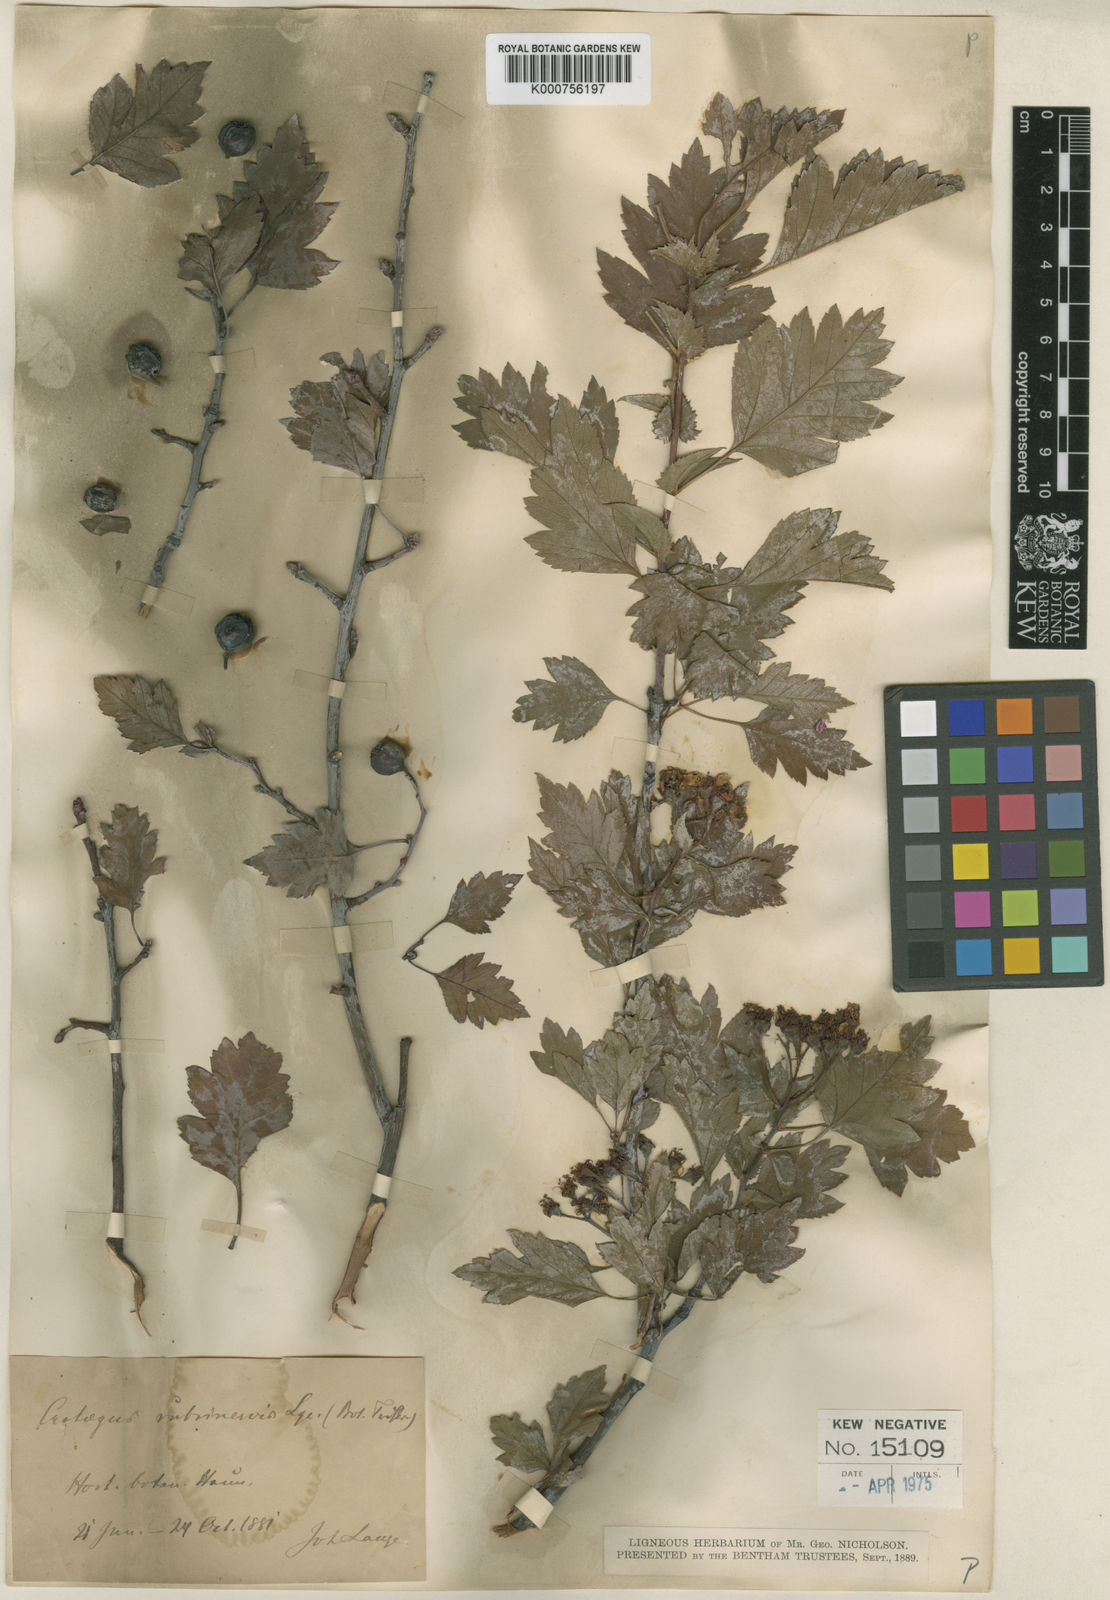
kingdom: Plantae
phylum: Tracheophyta
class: Magnoliopsida
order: Rosales
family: Rosaceae
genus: Aronia
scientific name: Aronia prunifolia
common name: Purple chokeberry
